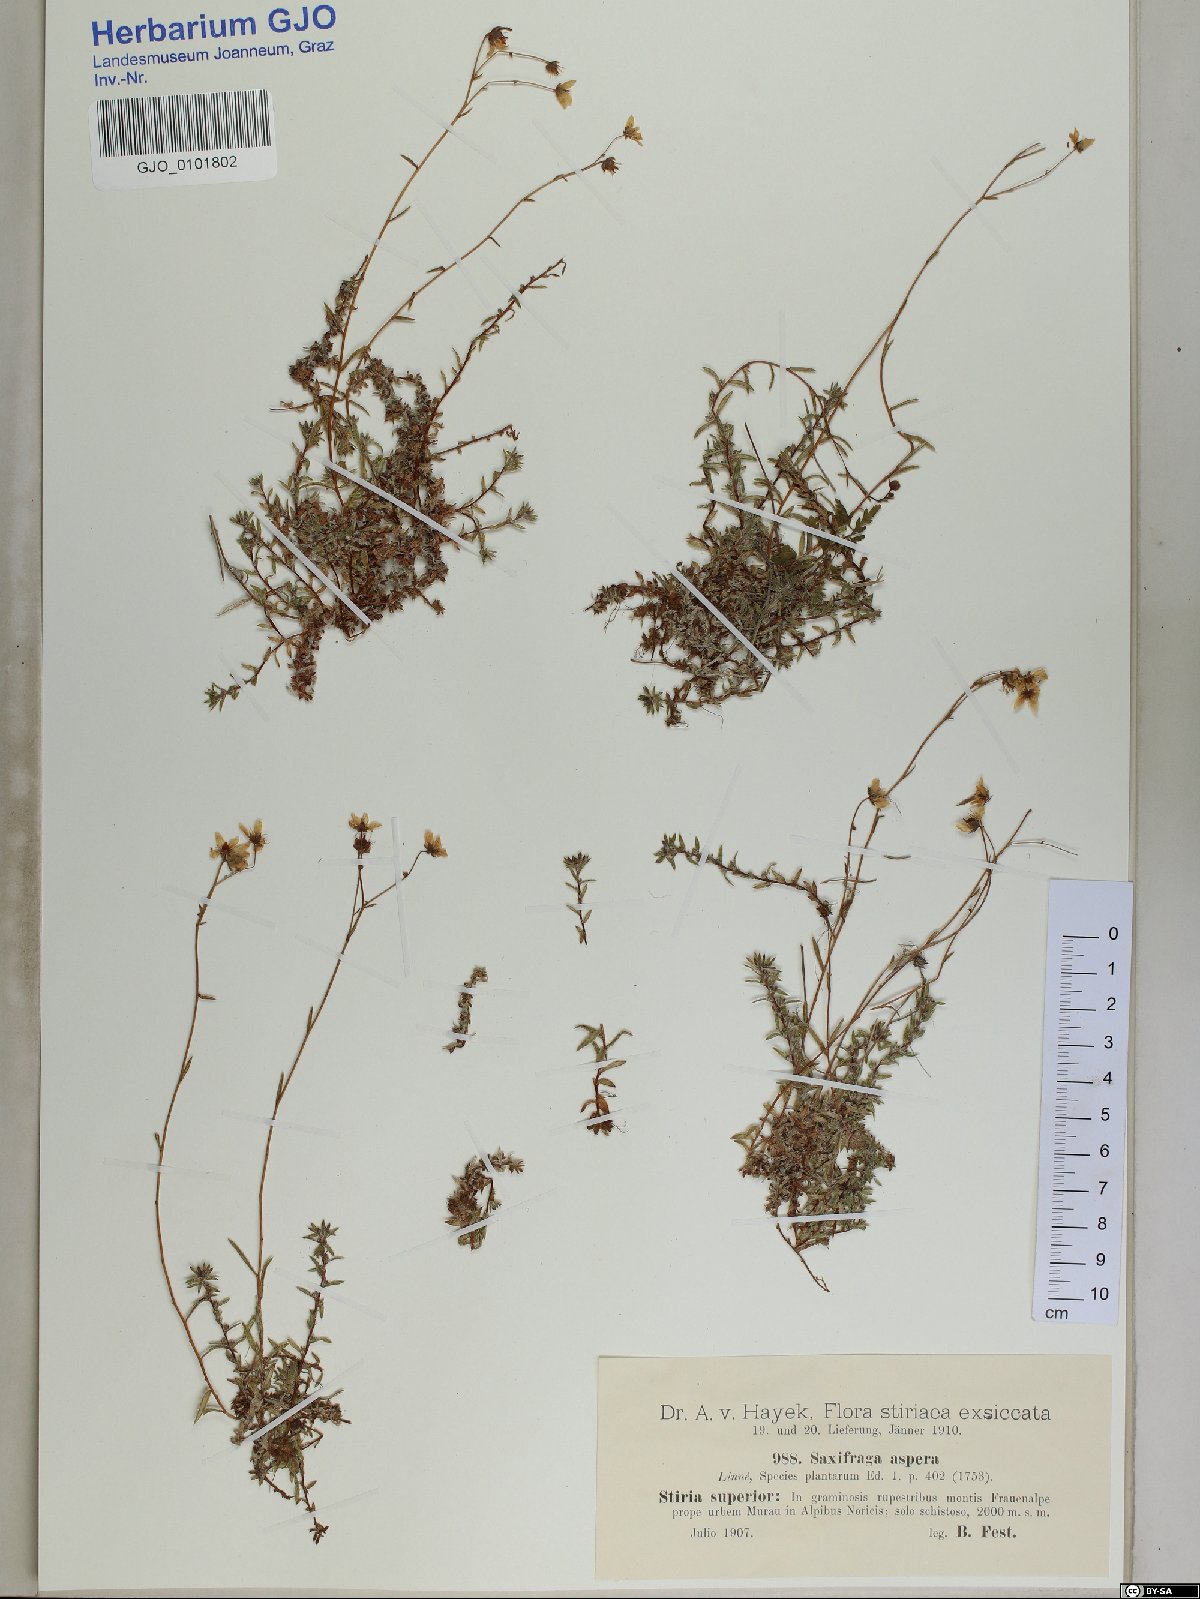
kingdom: Plantae
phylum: Tracheophyta
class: Magnoliopsida
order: Saxifragales
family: Saxifragaceae
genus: Saxifraga
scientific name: Saxifraga aspera
